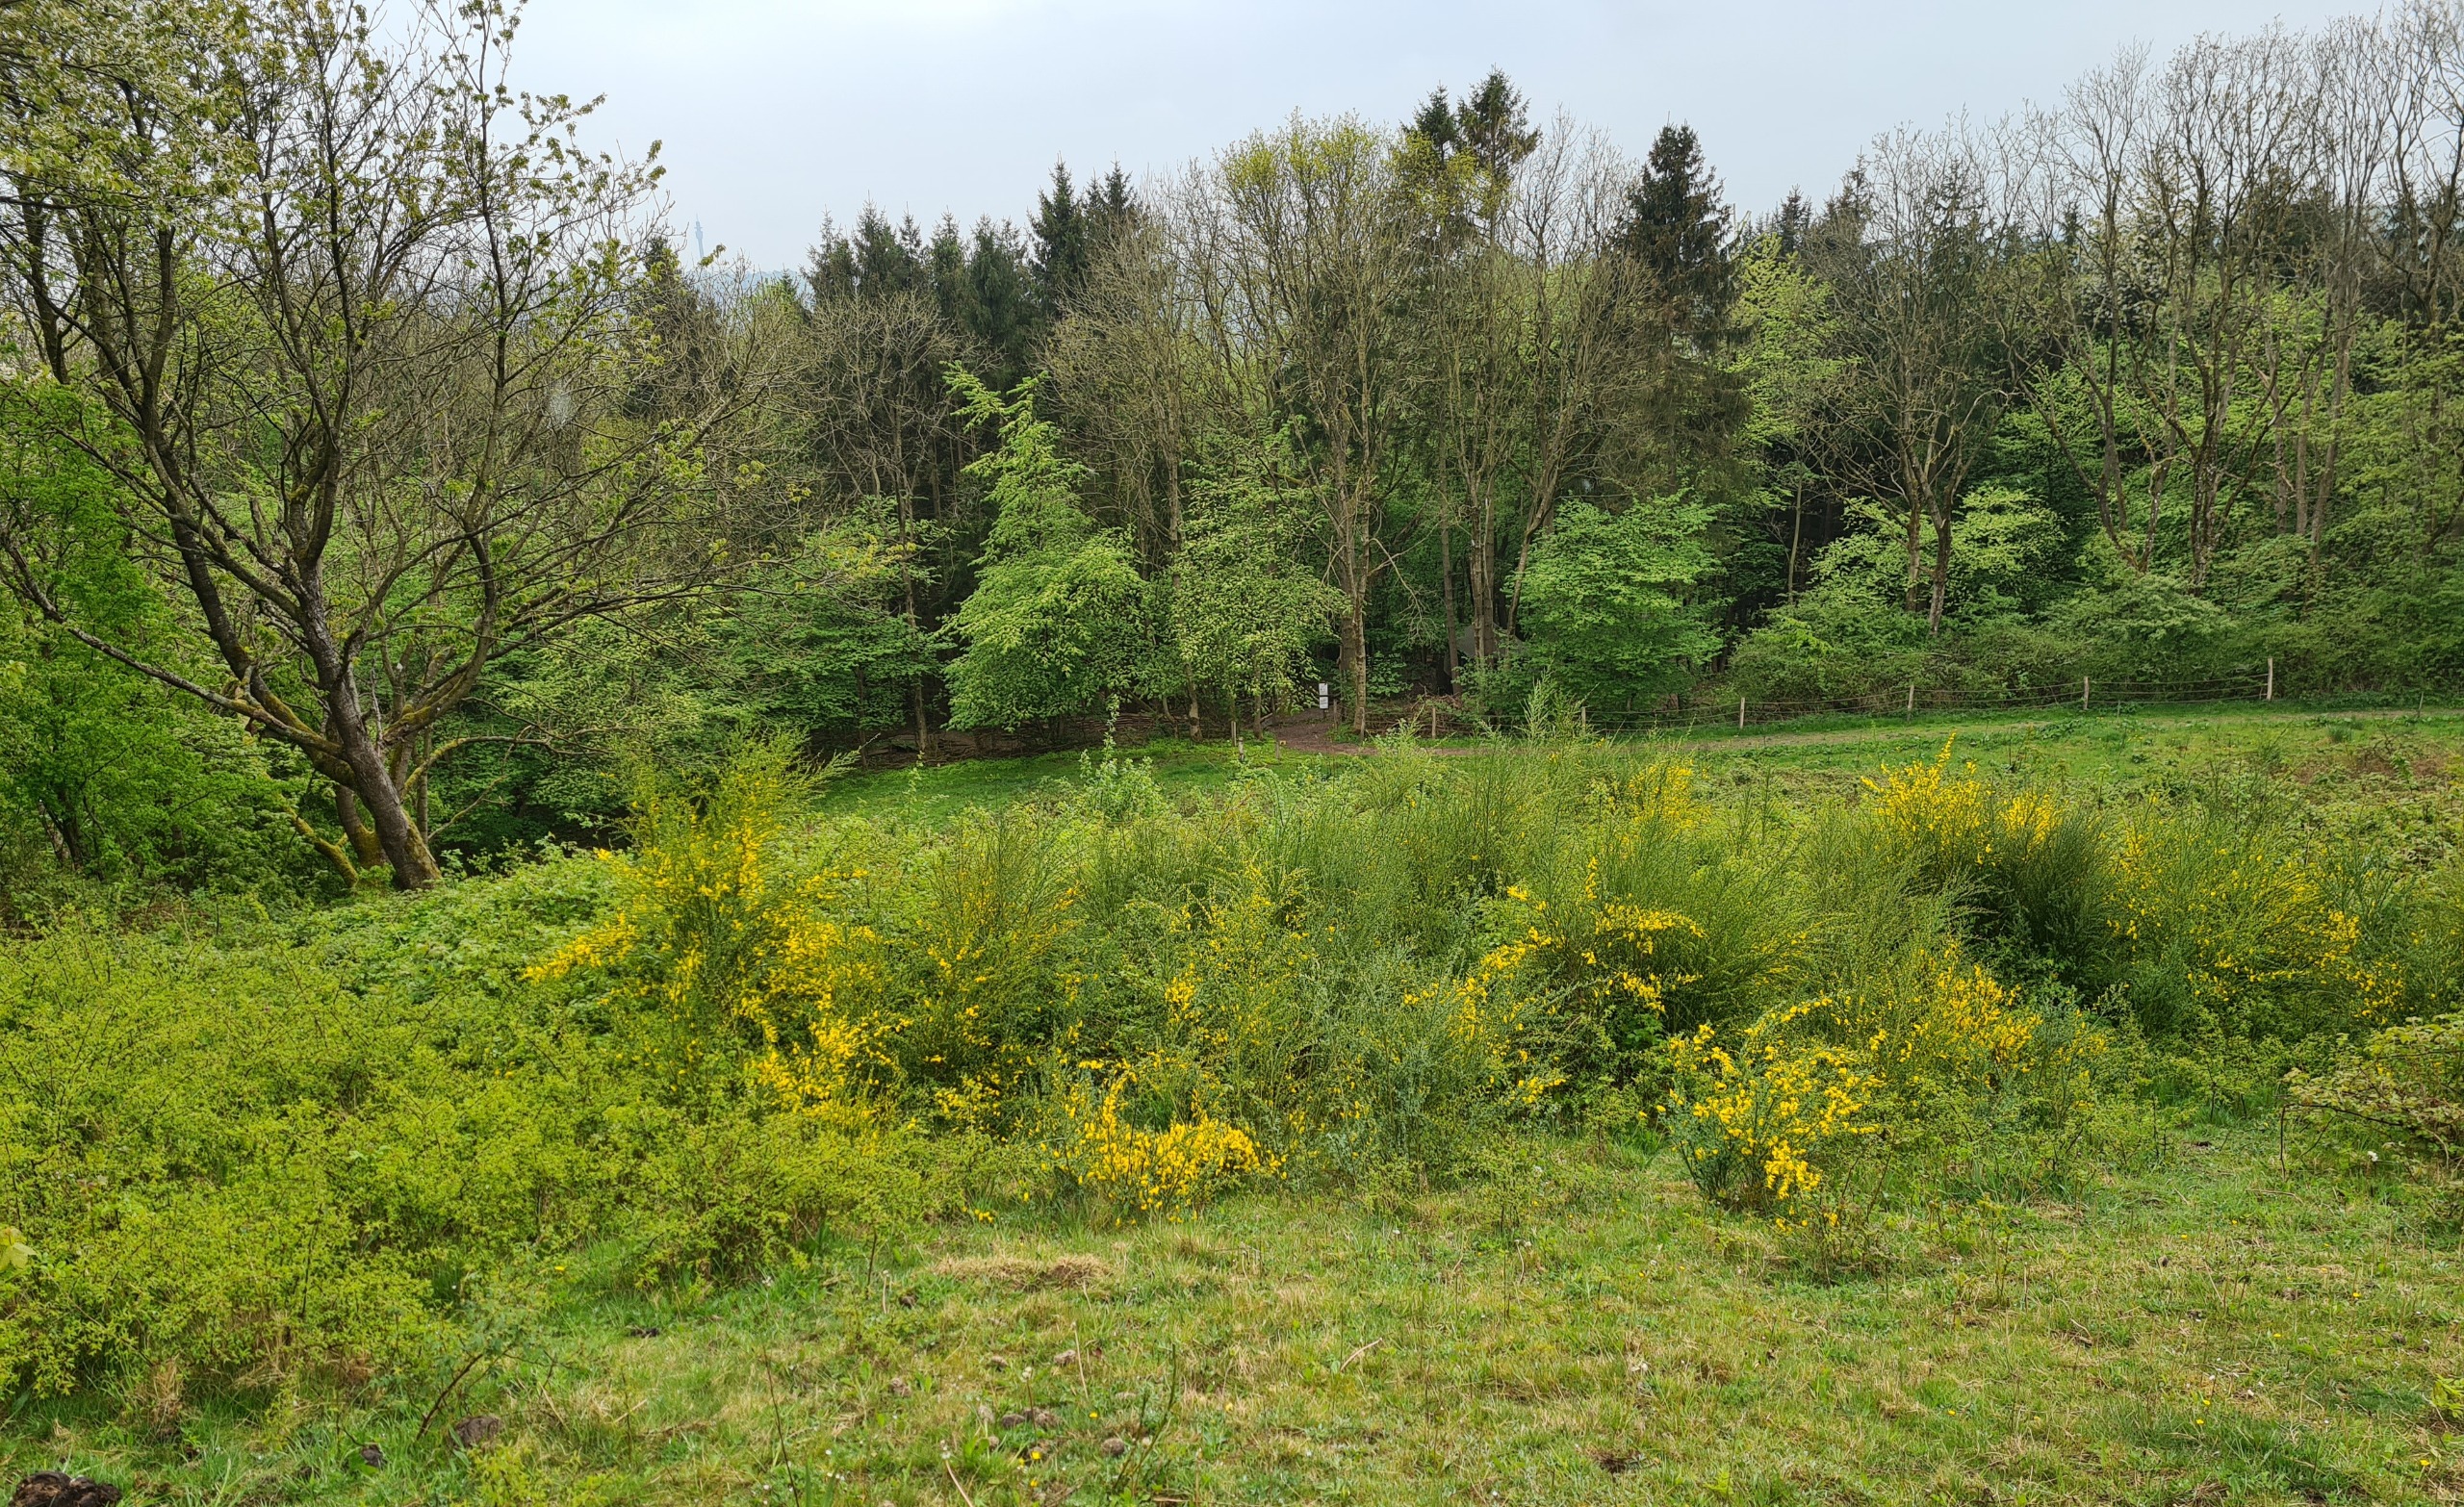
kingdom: Plantae
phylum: Tracheophyta
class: Magnoliopsida
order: Fabales
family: Fabaceae
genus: Cytisus
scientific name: Cytisus scoparius
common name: Almindelig gyvel
